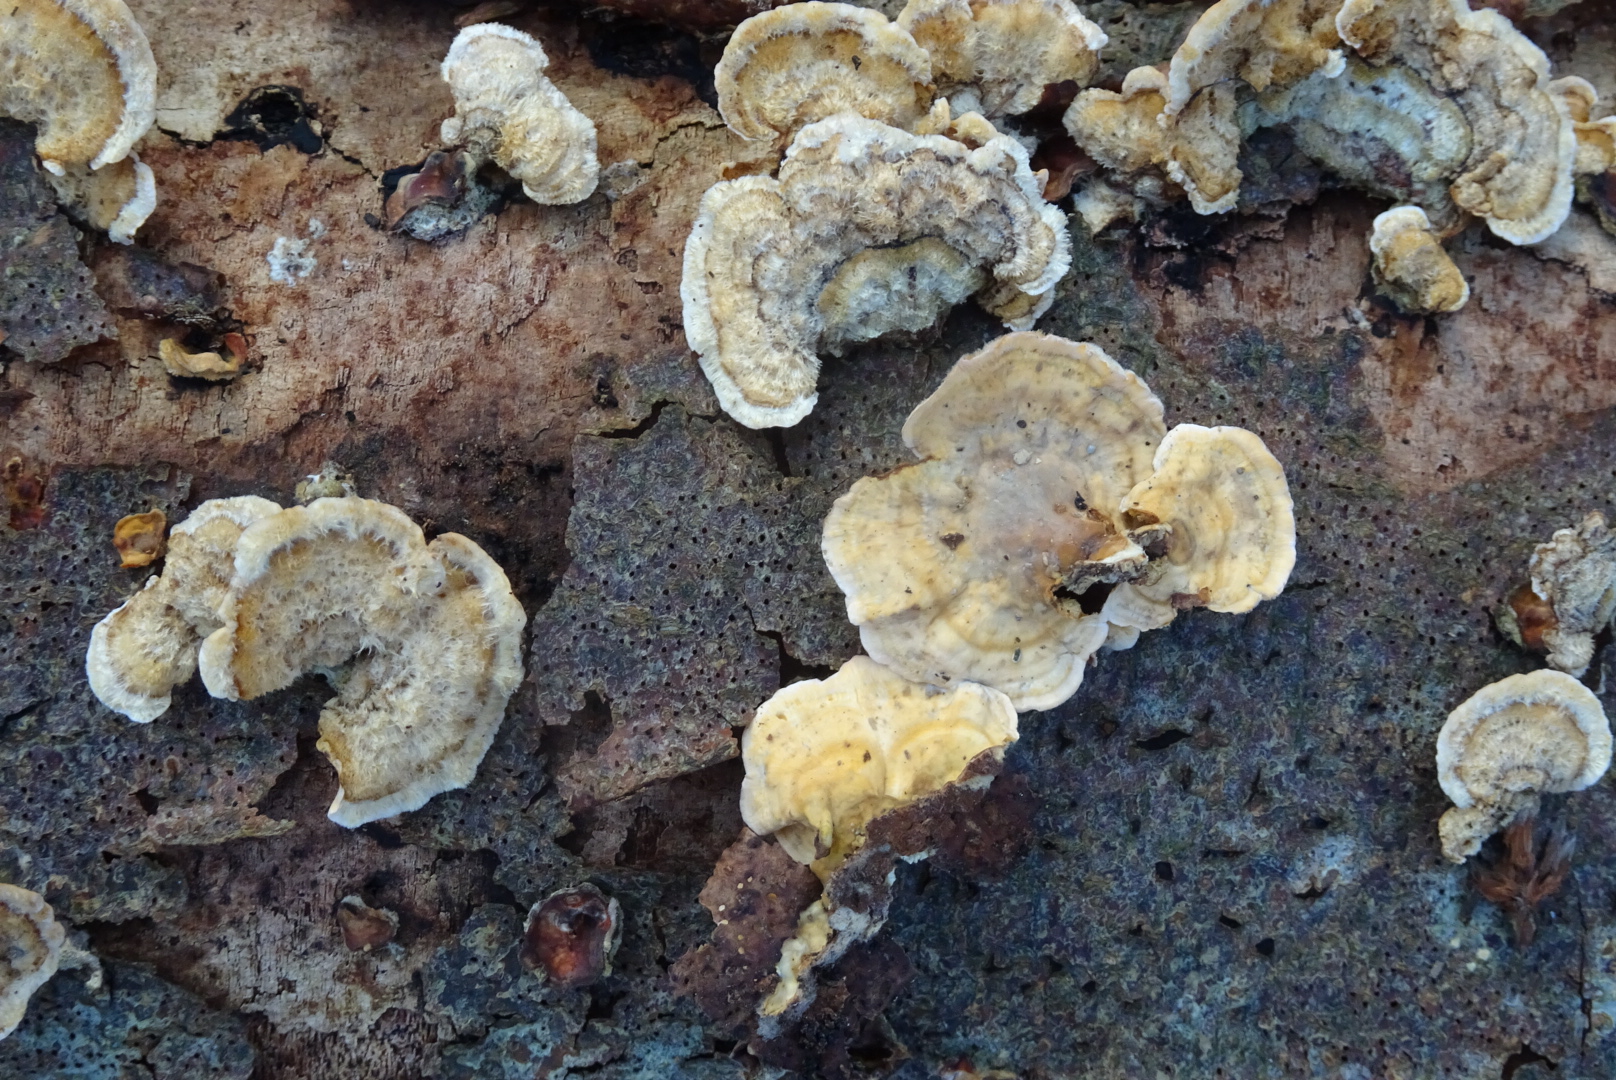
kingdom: Fungi
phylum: Basidiomycota
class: Agaricomycetes
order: Russulales
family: Stereaceae
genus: Stereum
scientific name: Stereum hirsutum
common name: håret lædersvamp
